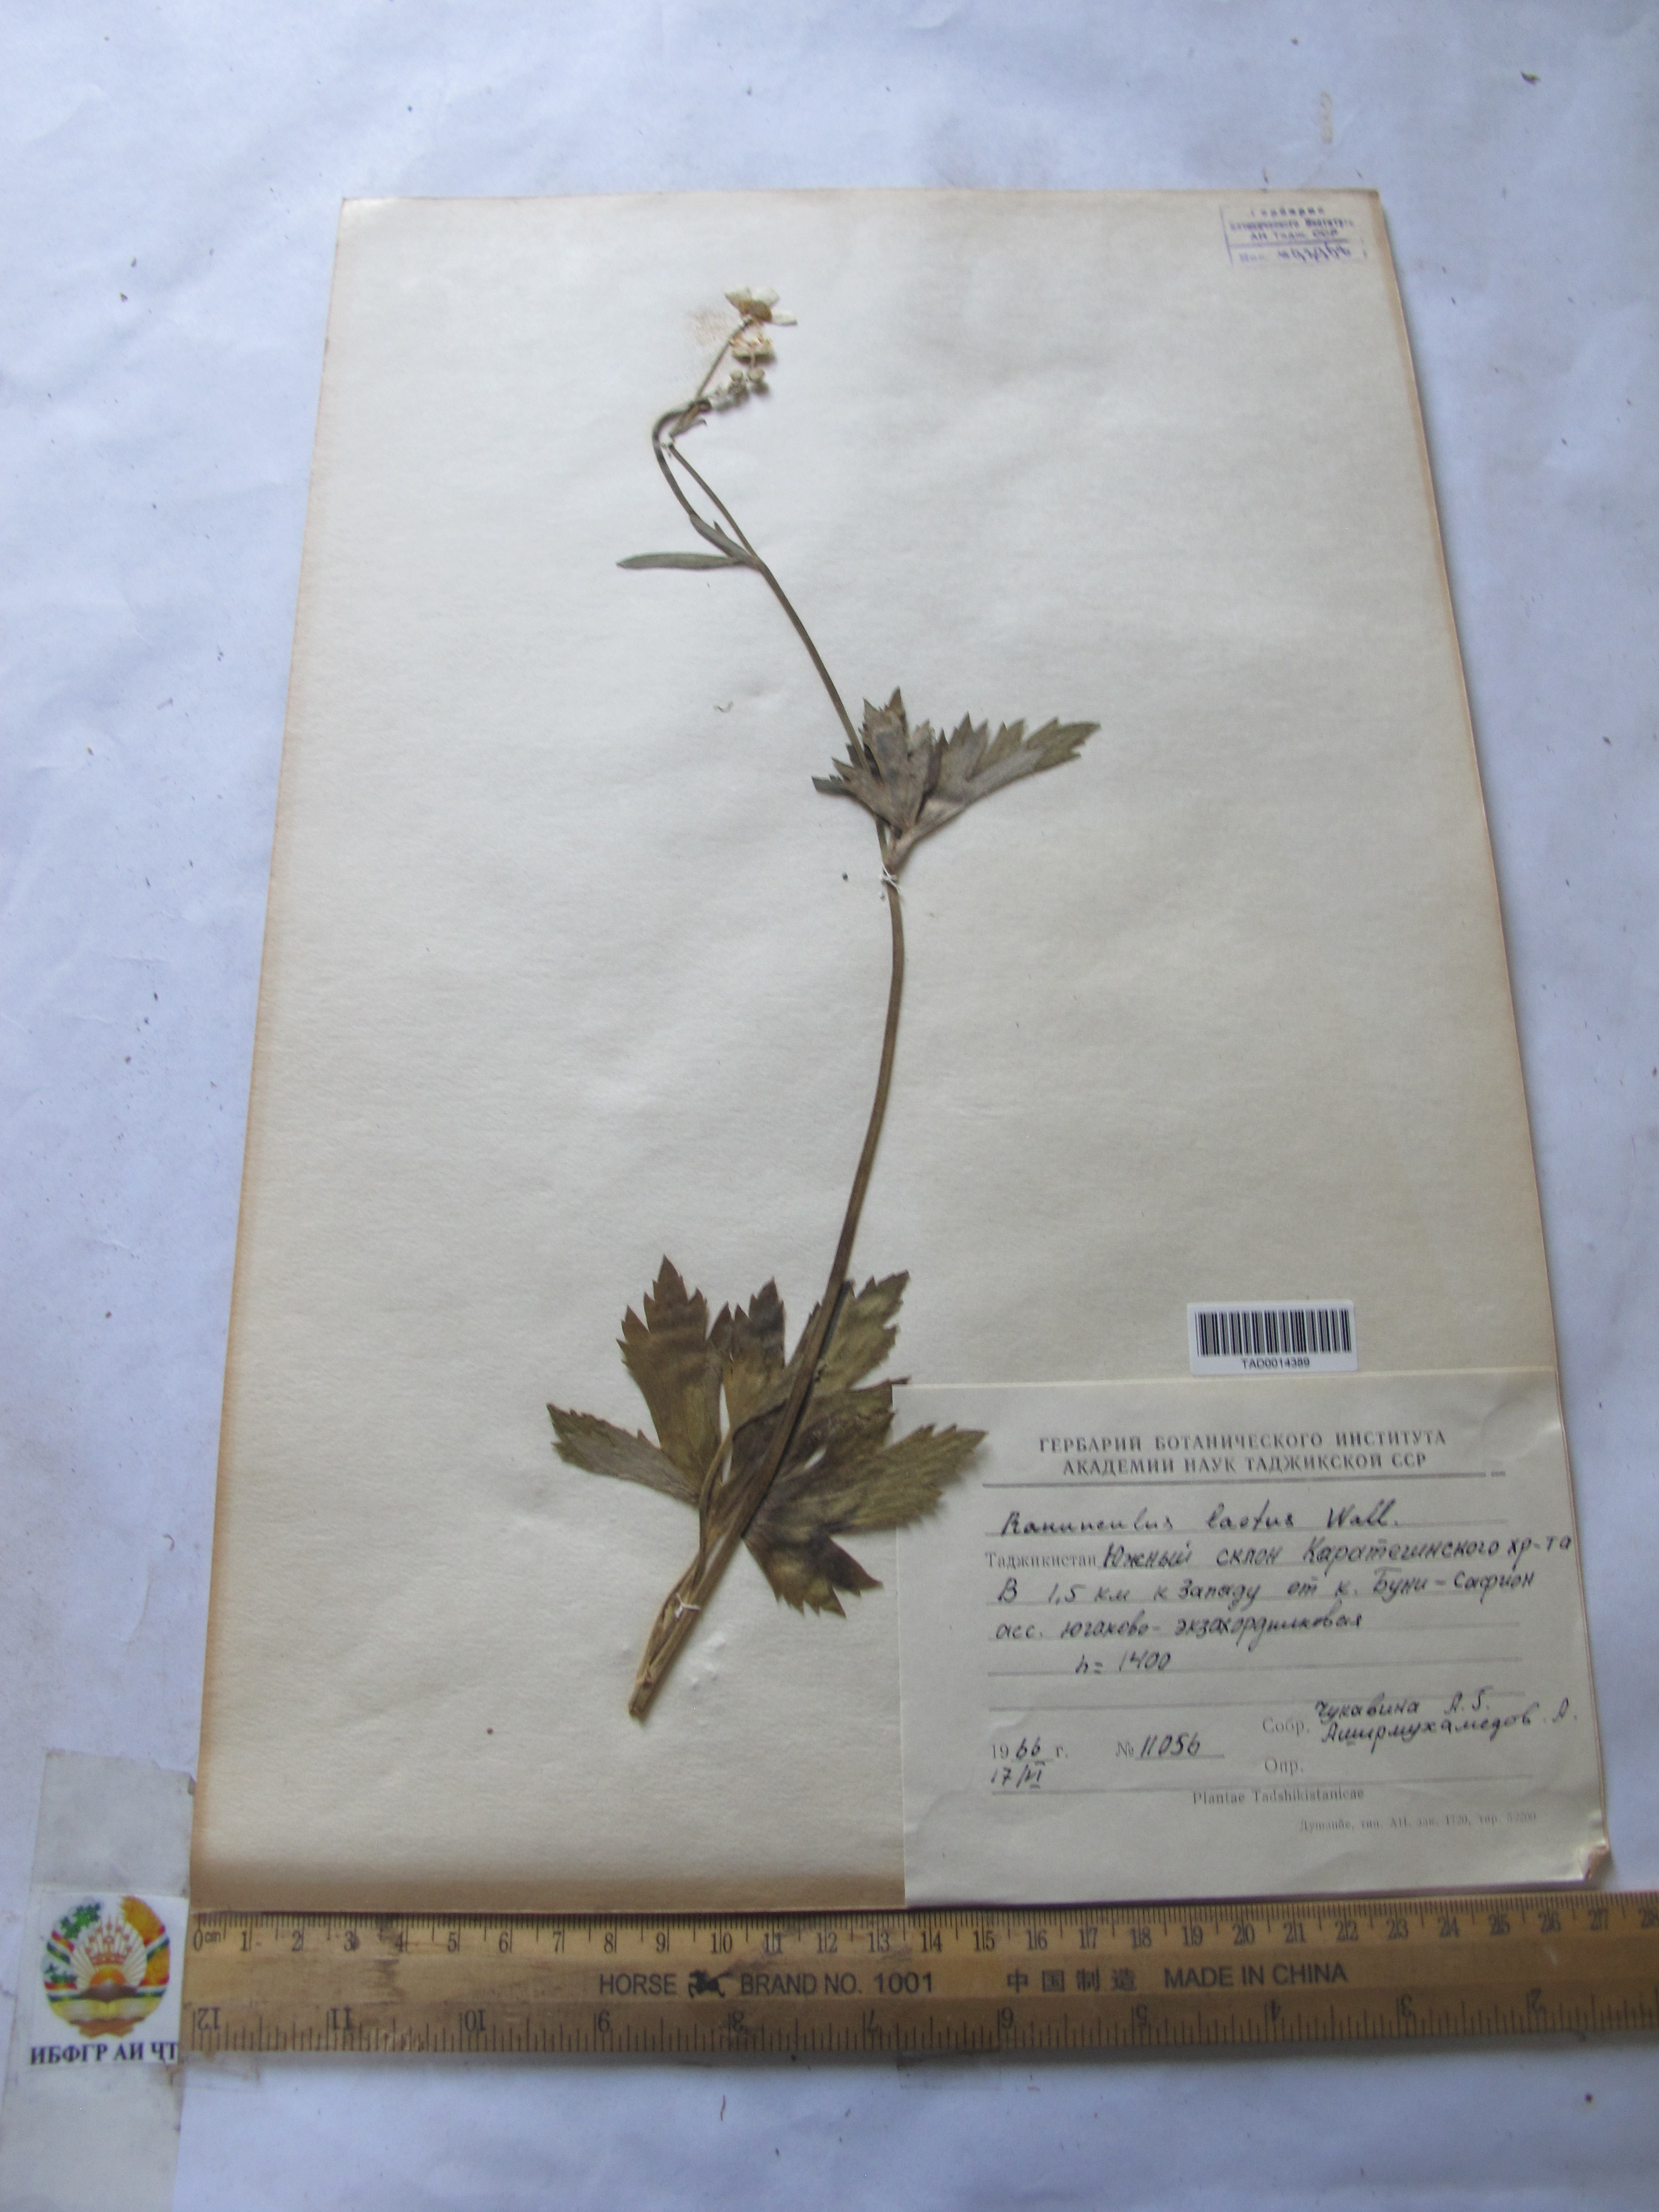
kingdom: Plantae
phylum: Tracheophyta
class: Magnoliopsida
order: Ranunculales
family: Ranunculaceae
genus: Ranunculus
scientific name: Ranunculus distans
